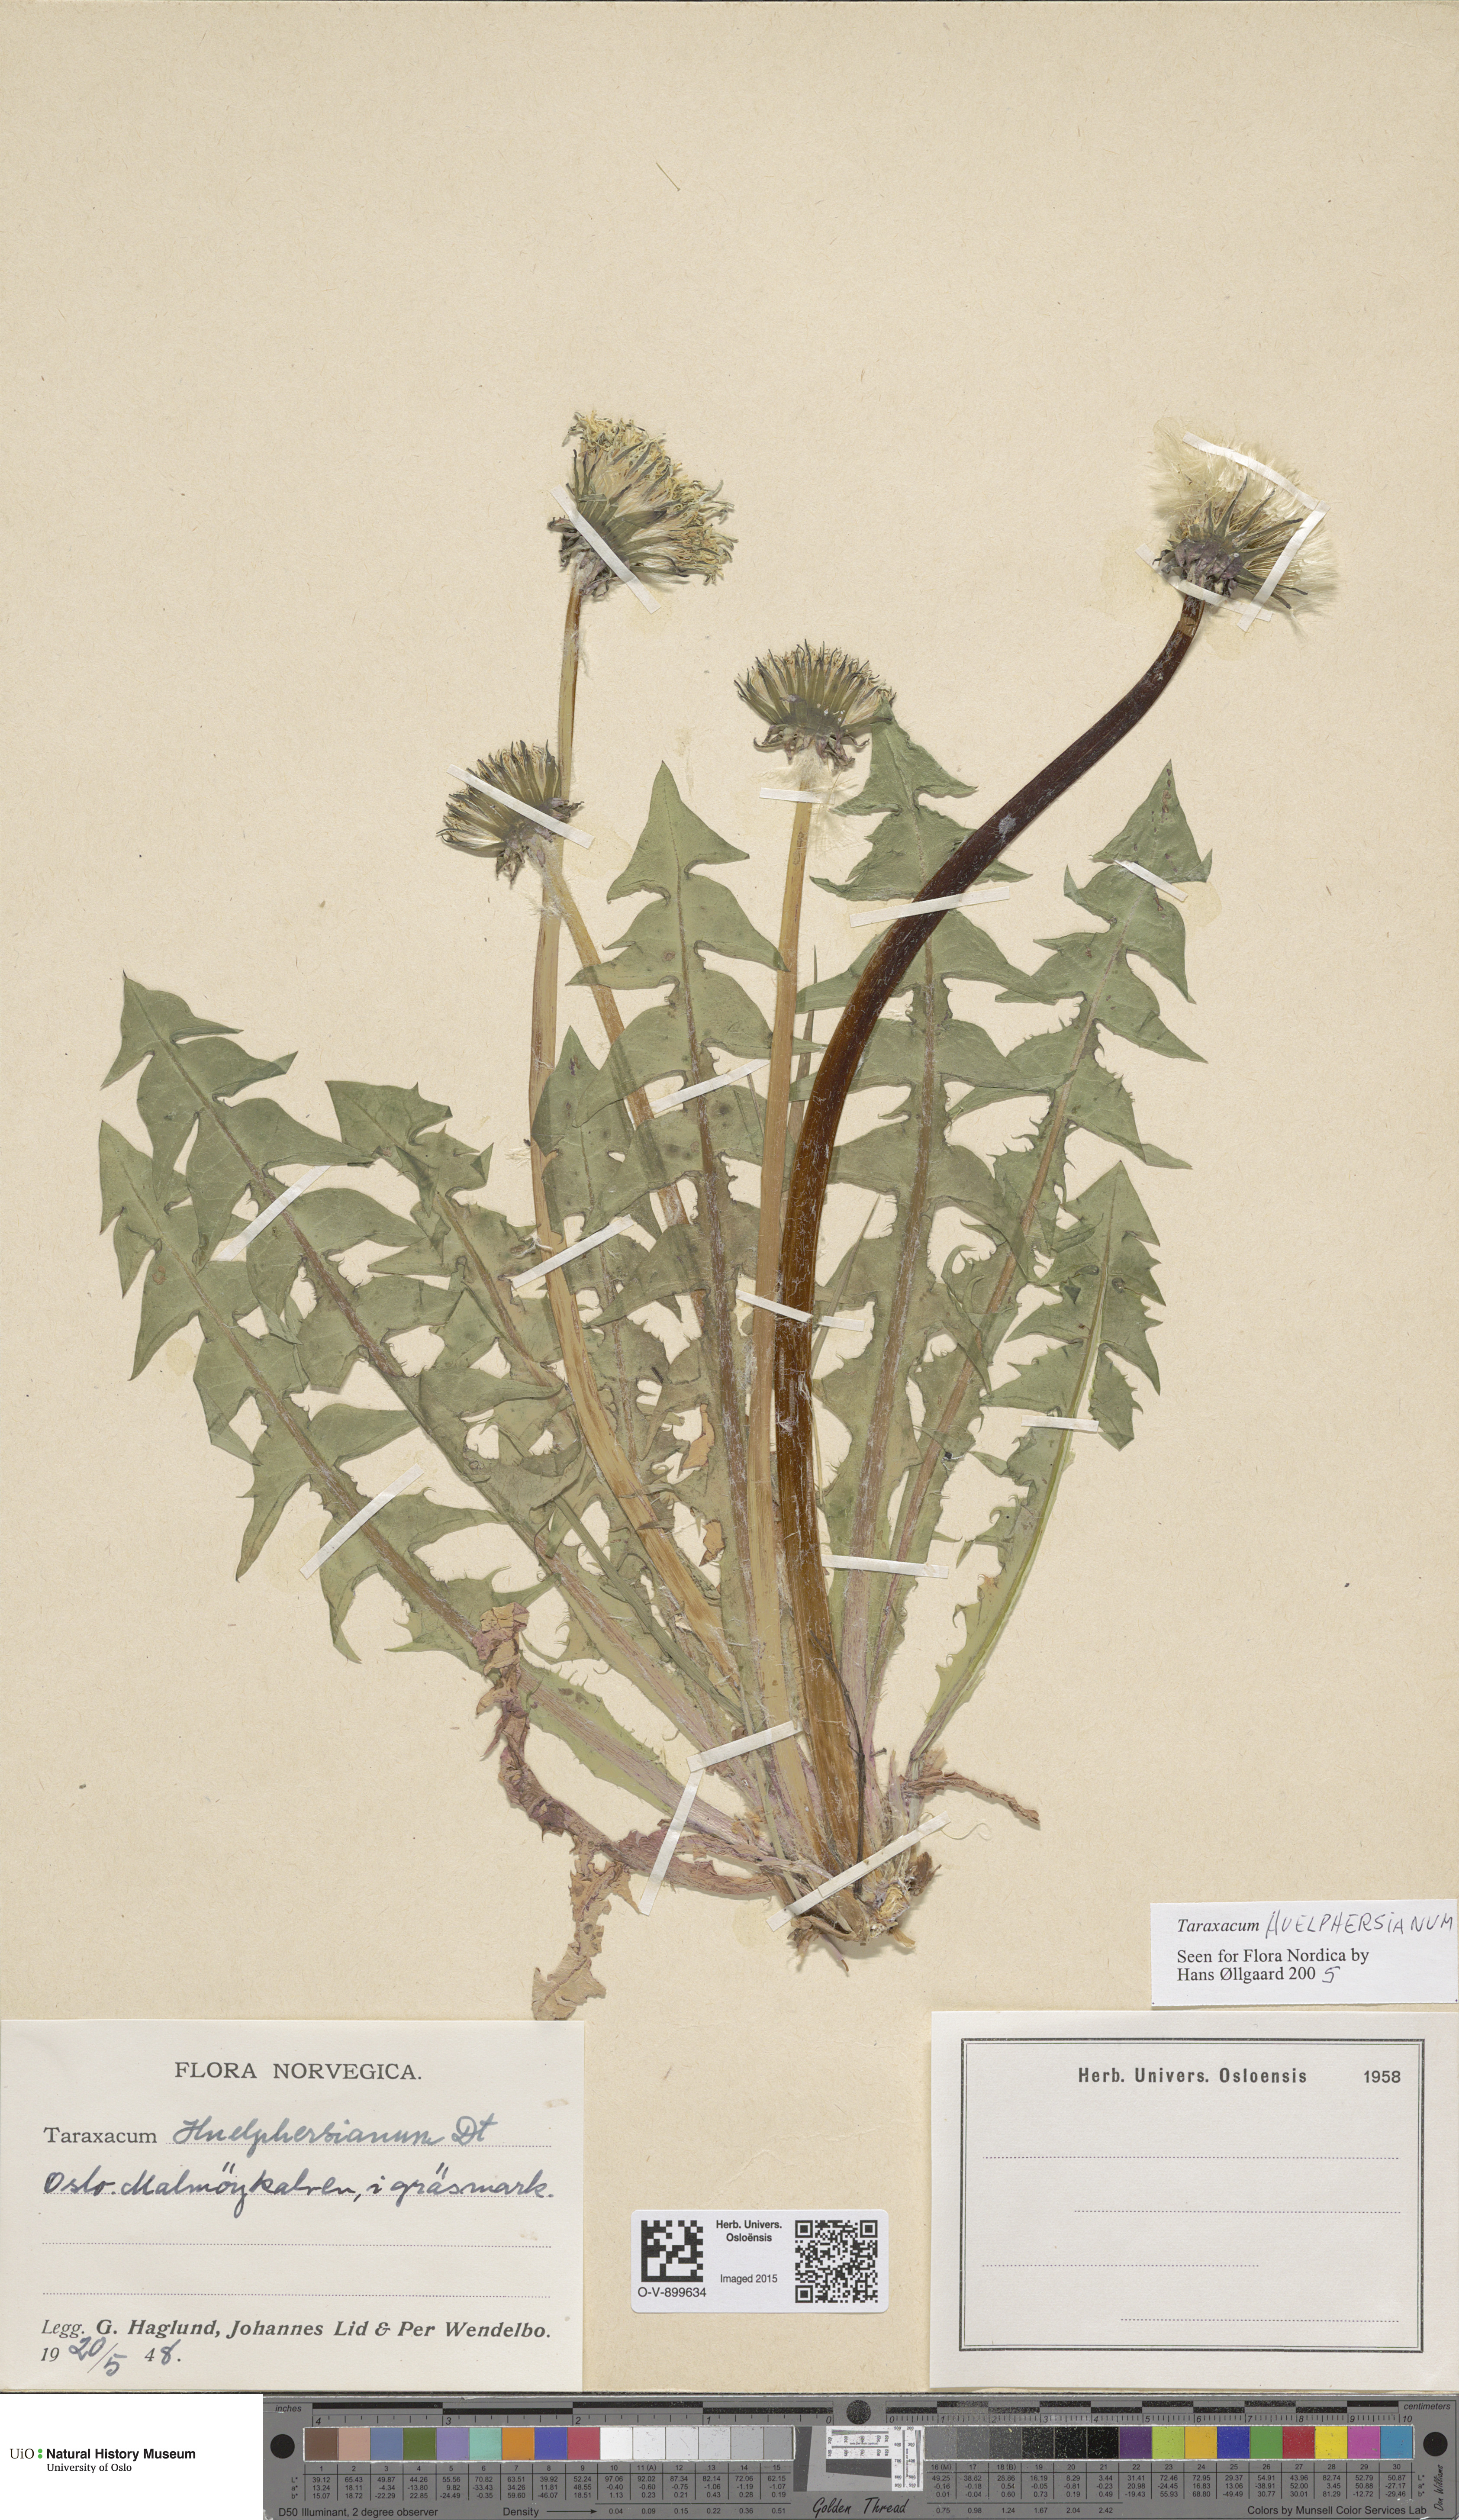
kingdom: Plantae
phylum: Tracheophyta
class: Magnoliopsida
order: Asterales
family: Asteraceae
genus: Taraxacum
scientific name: Taraxacum huelphersianum
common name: Hülphers's dandelion
